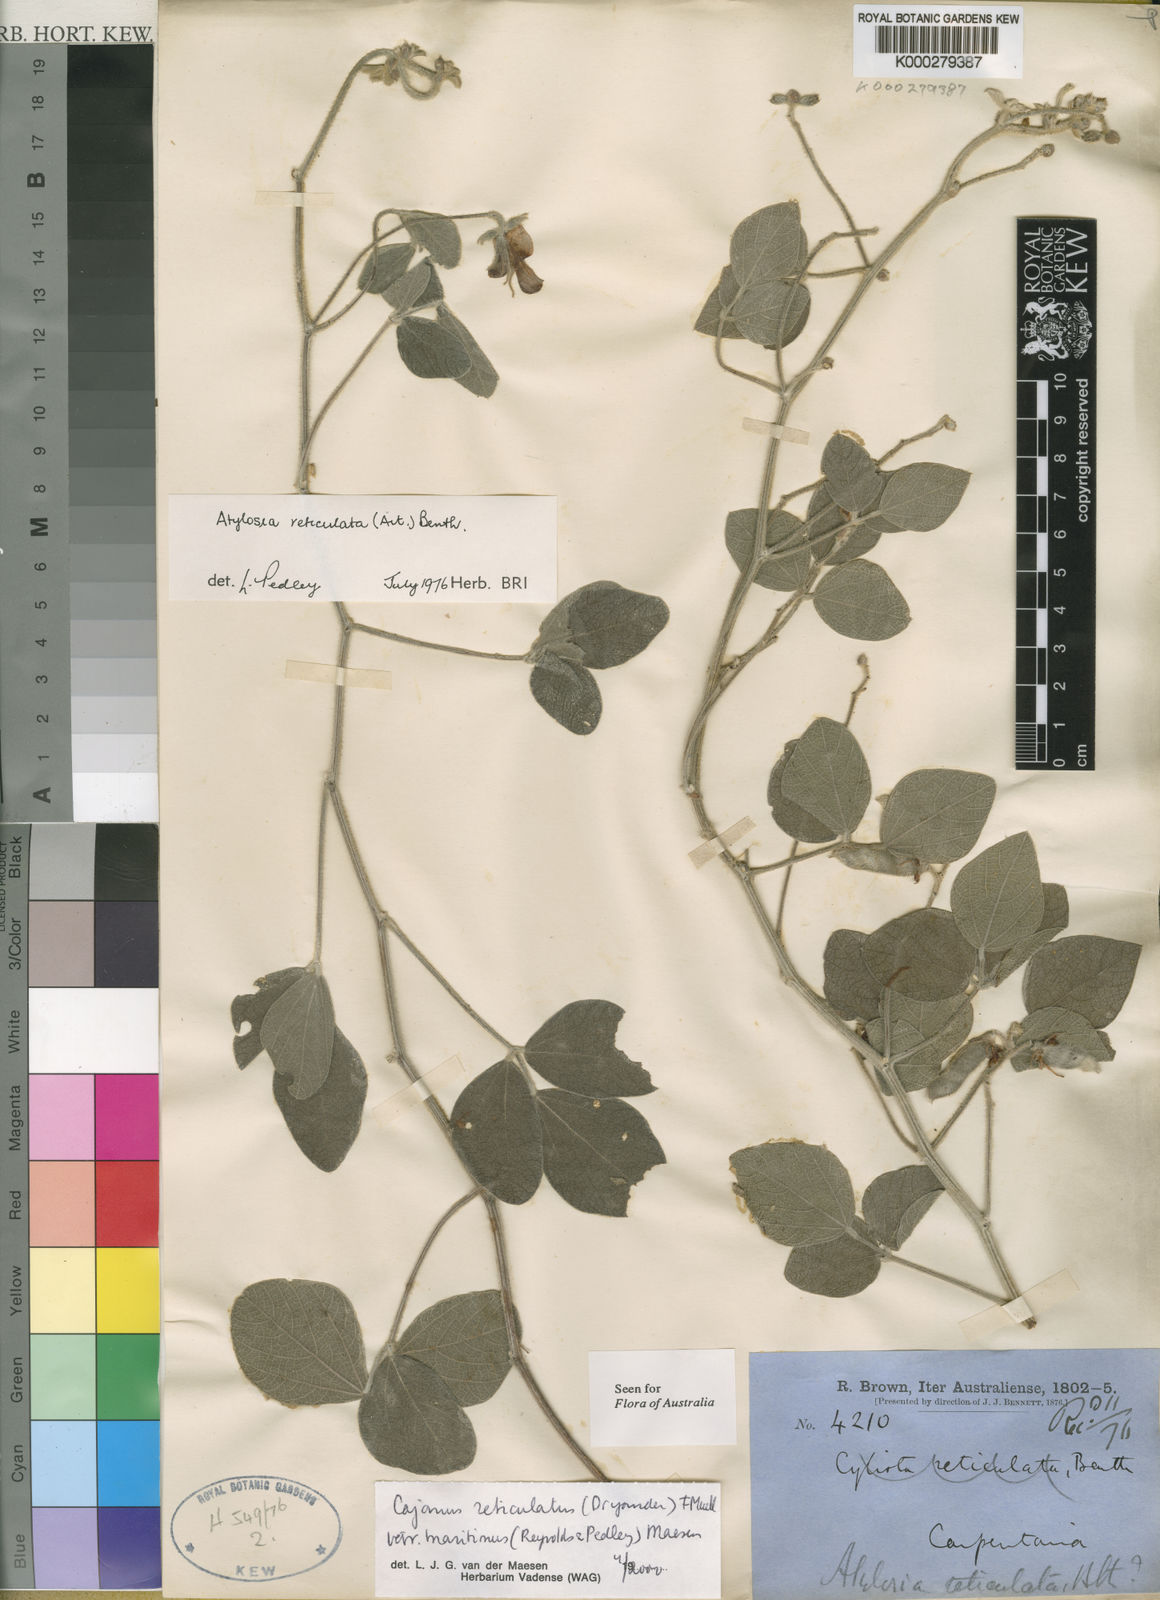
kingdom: Plantae
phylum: Tracheophyta
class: Magnoliopsida
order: Fabales
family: Fabaceae
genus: Cajanus
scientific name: Cajanus reticulatus
